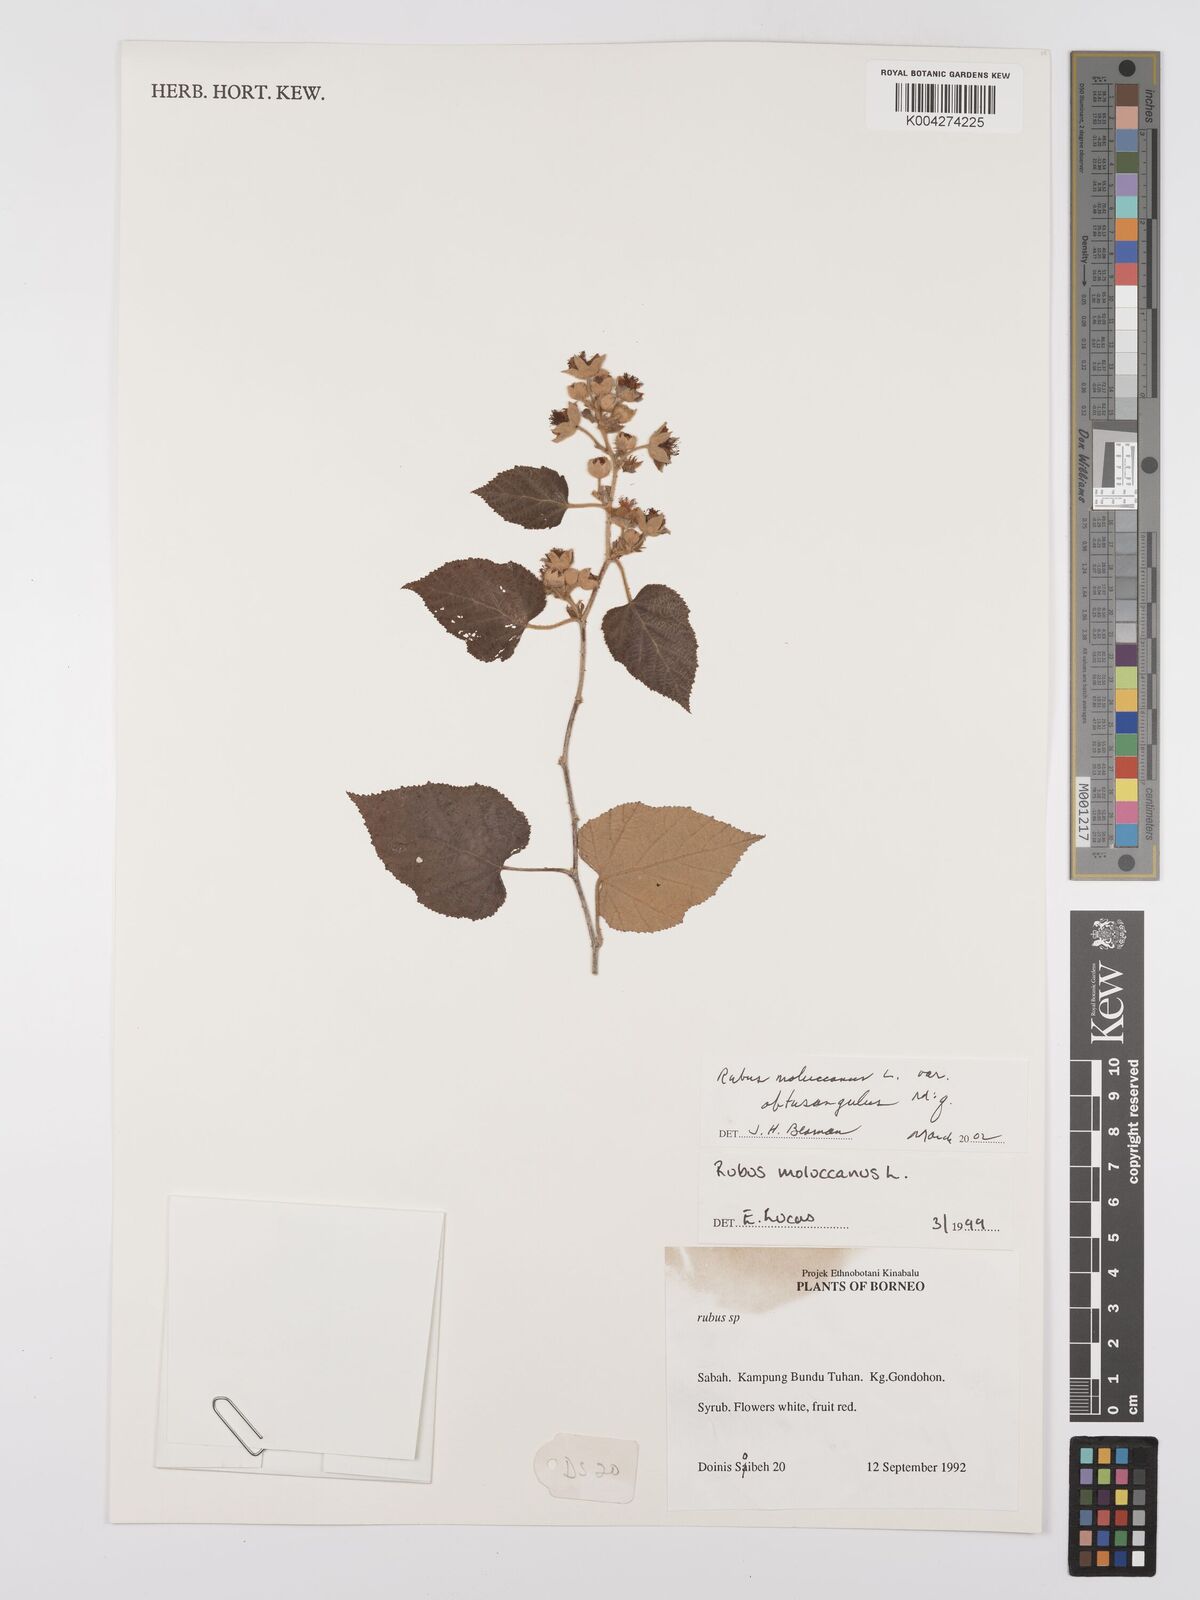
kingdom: Plantae
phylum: Tracheophyta
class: Magnoliopsida
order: Rosales
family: Rosaceae
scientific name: Rosaceae
